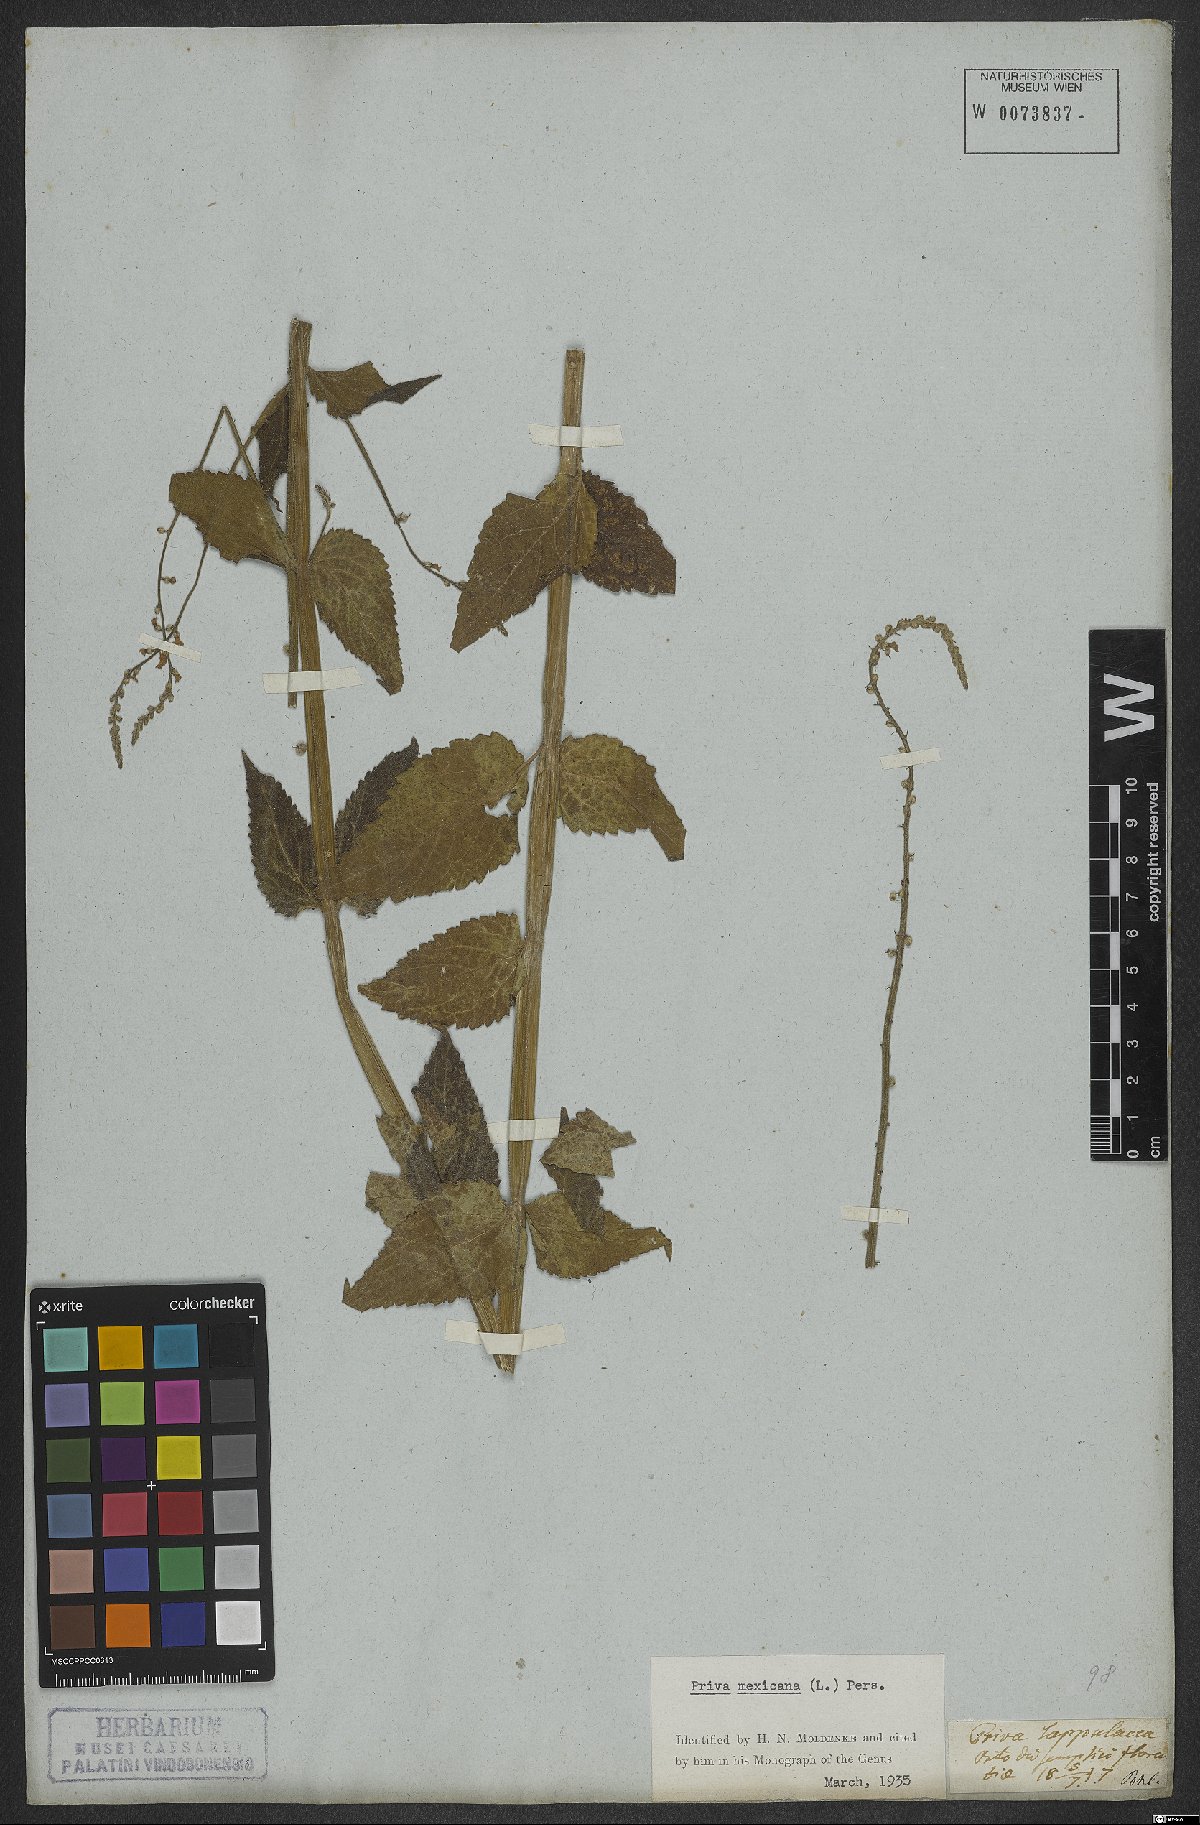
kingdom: Plantae
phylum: Tracheophyta
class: Magnoliopsida
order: Lamiales
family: Verbenaceae
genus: Priva
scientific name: Priva mexicana
